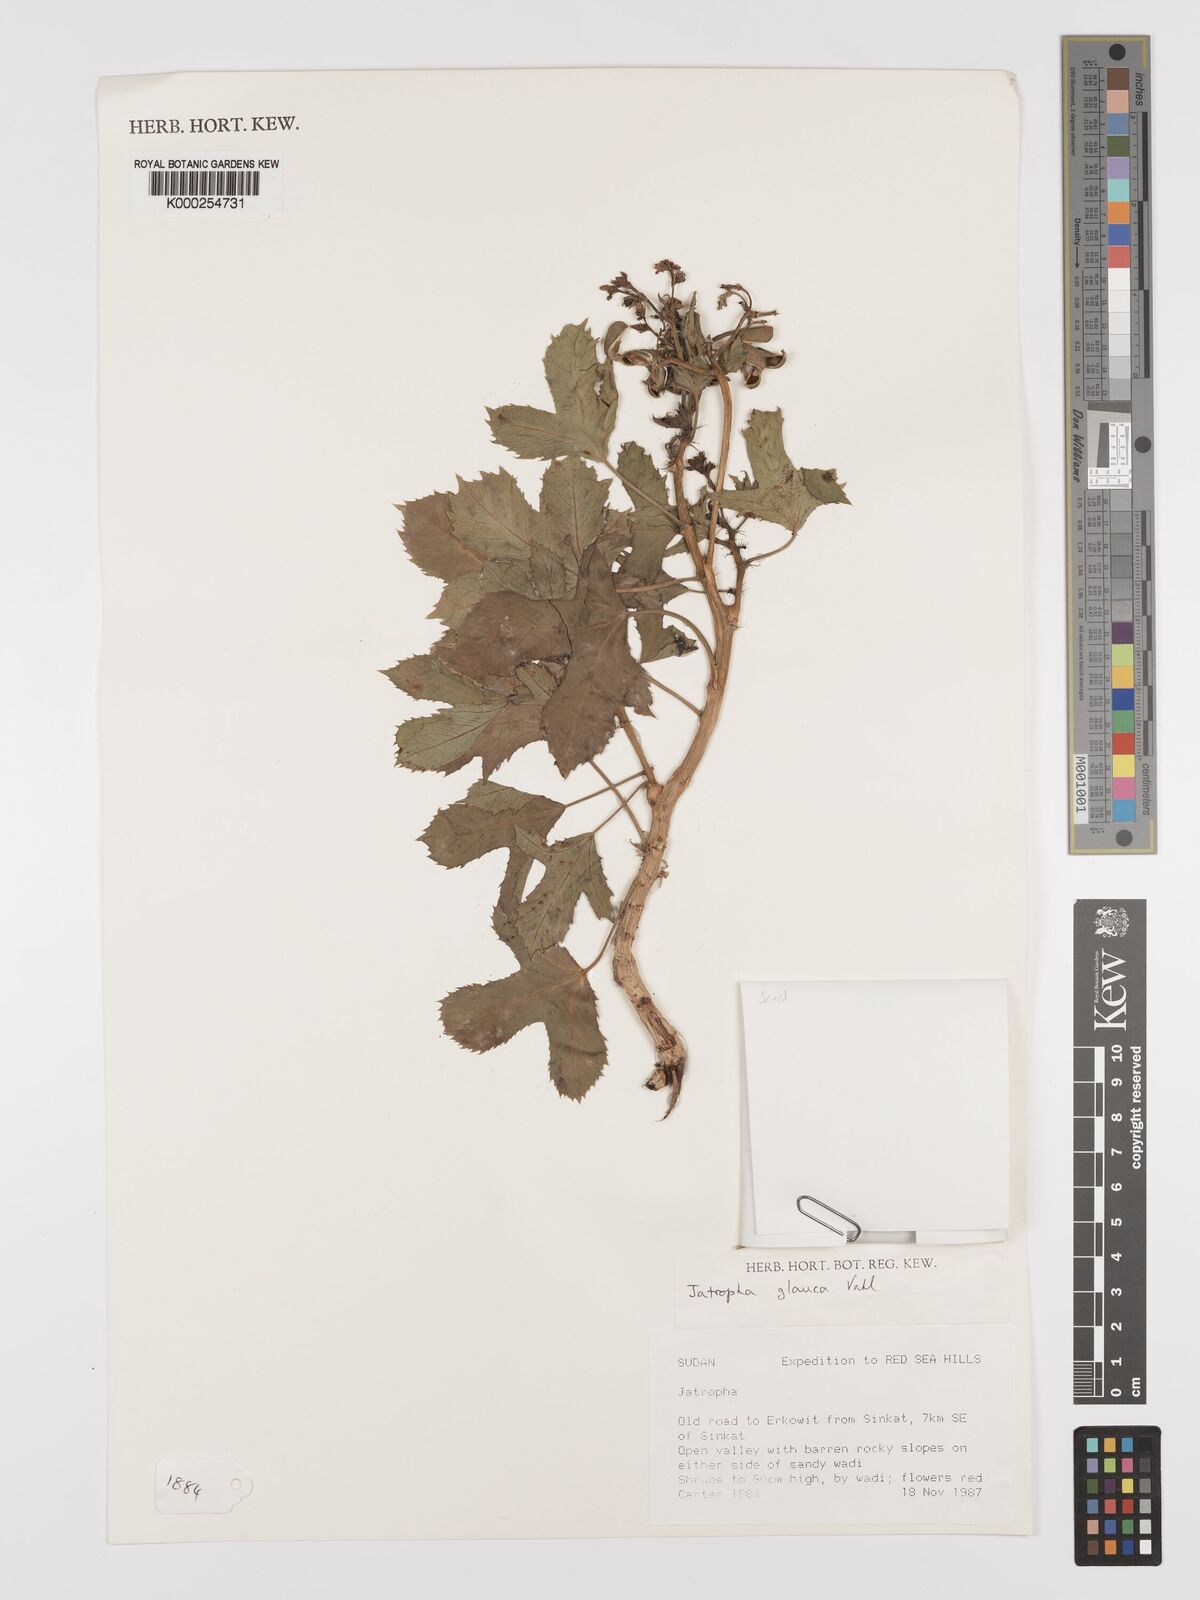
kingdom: Plantae
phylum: Tracheophyta
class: Magnoliopsida
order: Malpighiales
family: Euphorbiaceae
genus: Jatropha
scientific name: Jatropha glauca
